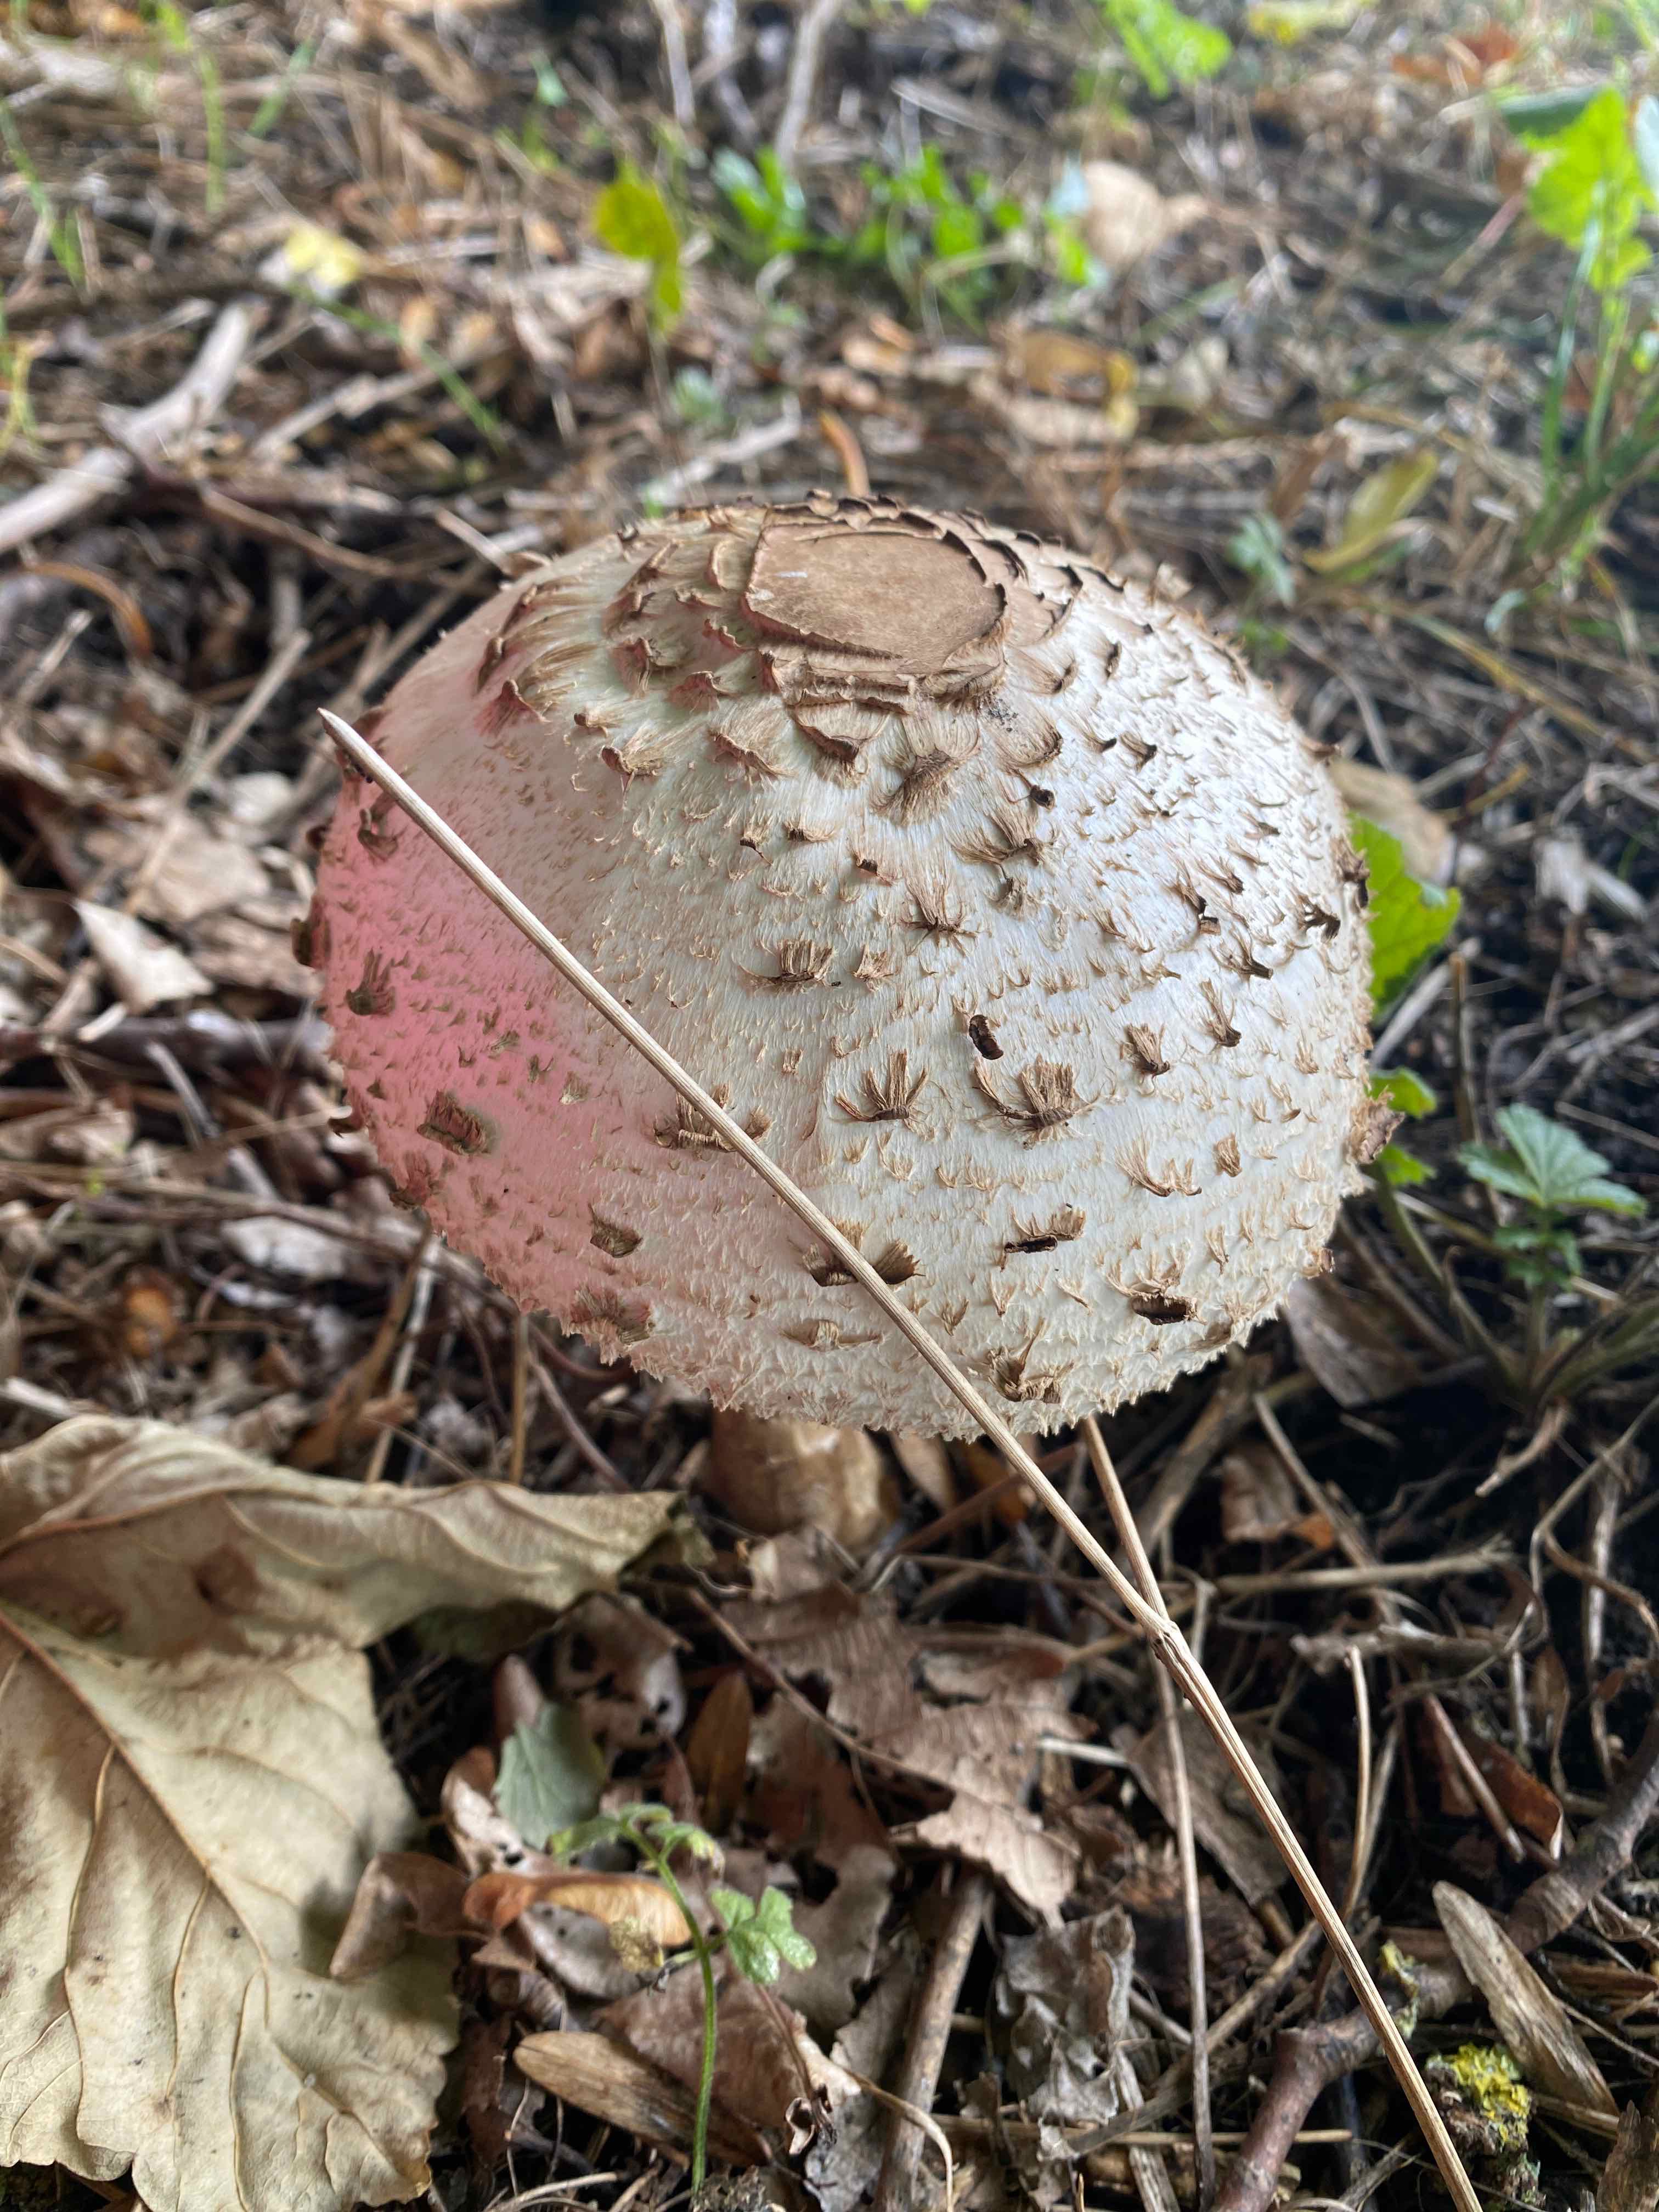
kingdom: Fungi
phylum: Basidiomycota
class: Agaricomycetes
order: Agaricales
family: Agaricaceae
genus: Chlorophyllum
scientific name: Chlorophyllum
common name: rabarberhat
